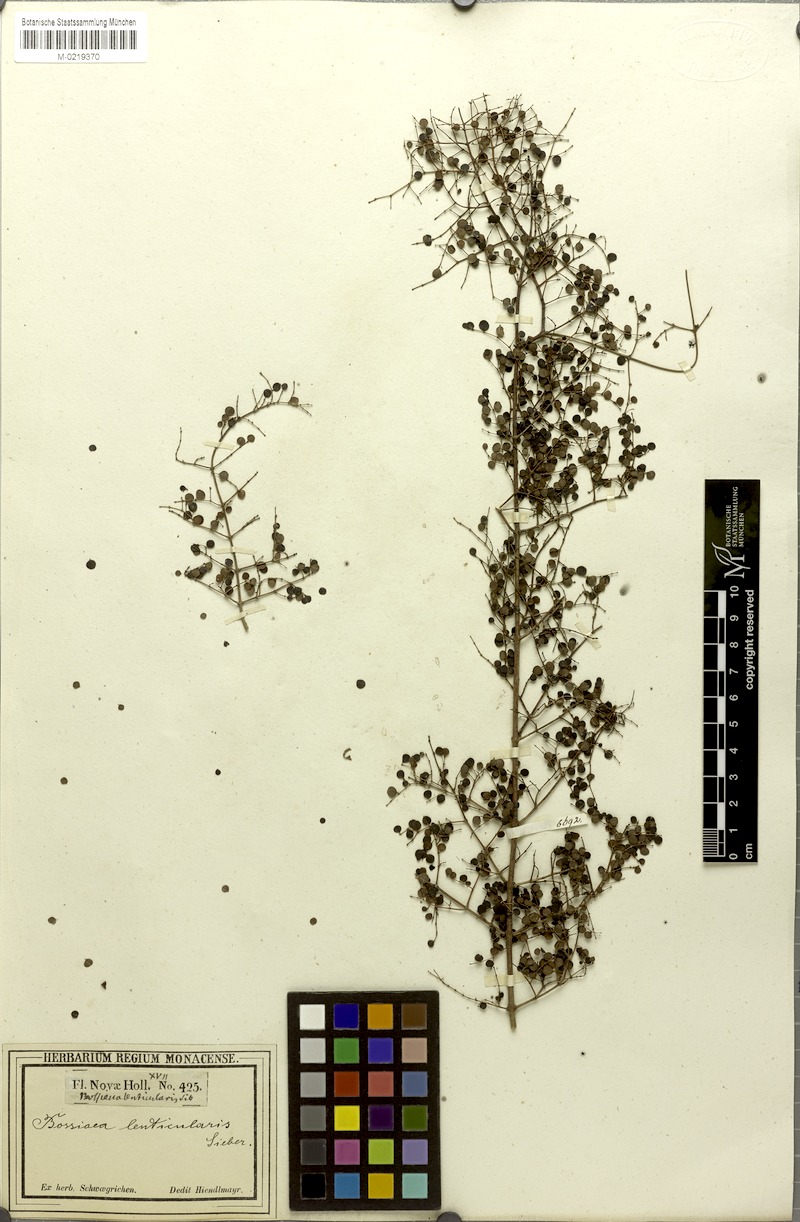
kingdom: Plantae
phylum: Tracheophyta
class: Magnoliopsida
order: Fabales
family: Fabaceae
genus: Bossiaea
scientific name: Bossiaea lenticularis
